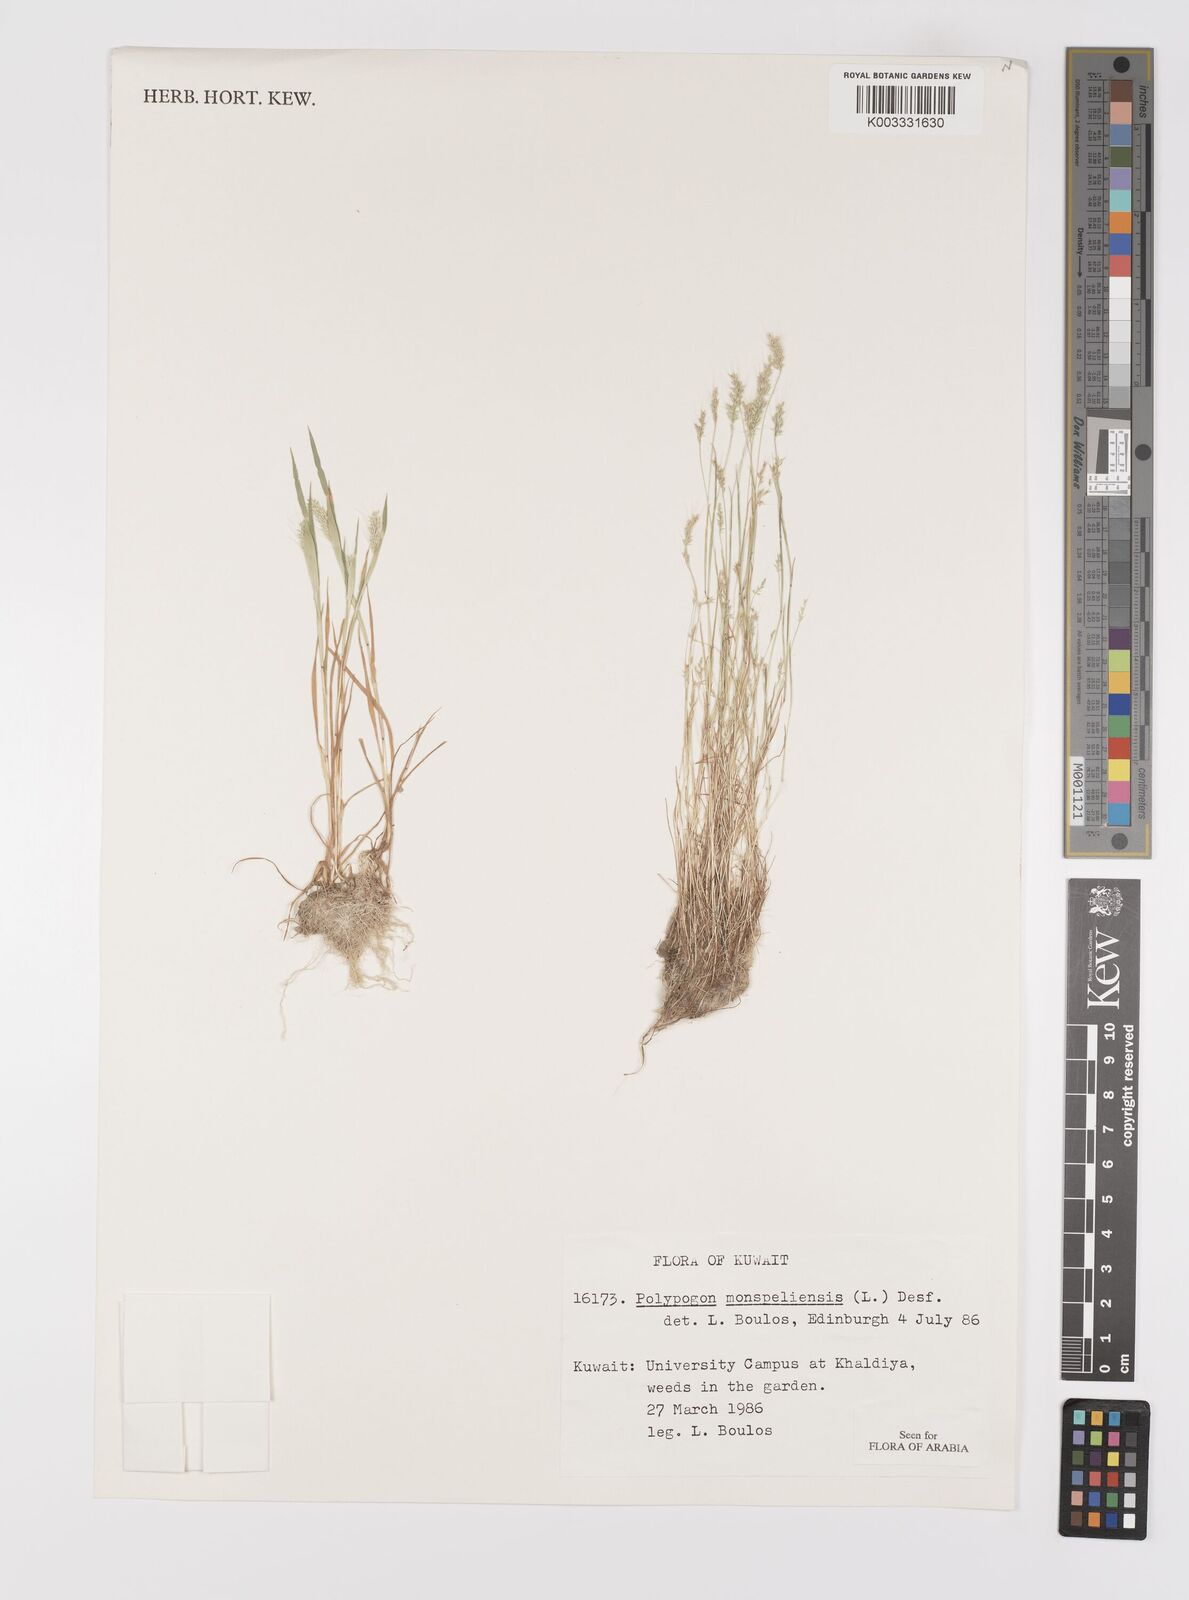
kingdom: Plantae
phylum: Tracheophyta
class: Liliopsida
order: Poales
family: Poaceae
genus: Polypogon
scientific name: Polypogon monspeliensis
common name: Annual rabbitsfoot grass
